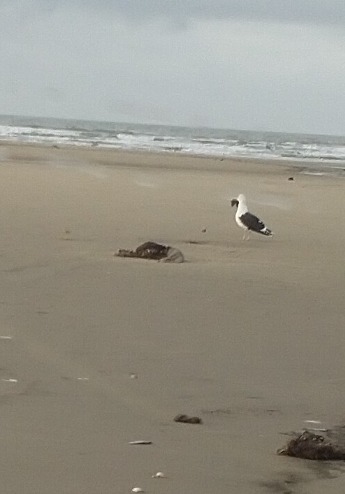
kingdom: Animalia
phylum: Chordata
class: Aves
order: Charadriiformes
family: Laridae
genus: Larus
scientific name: Larus marinus
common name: Svartbag
